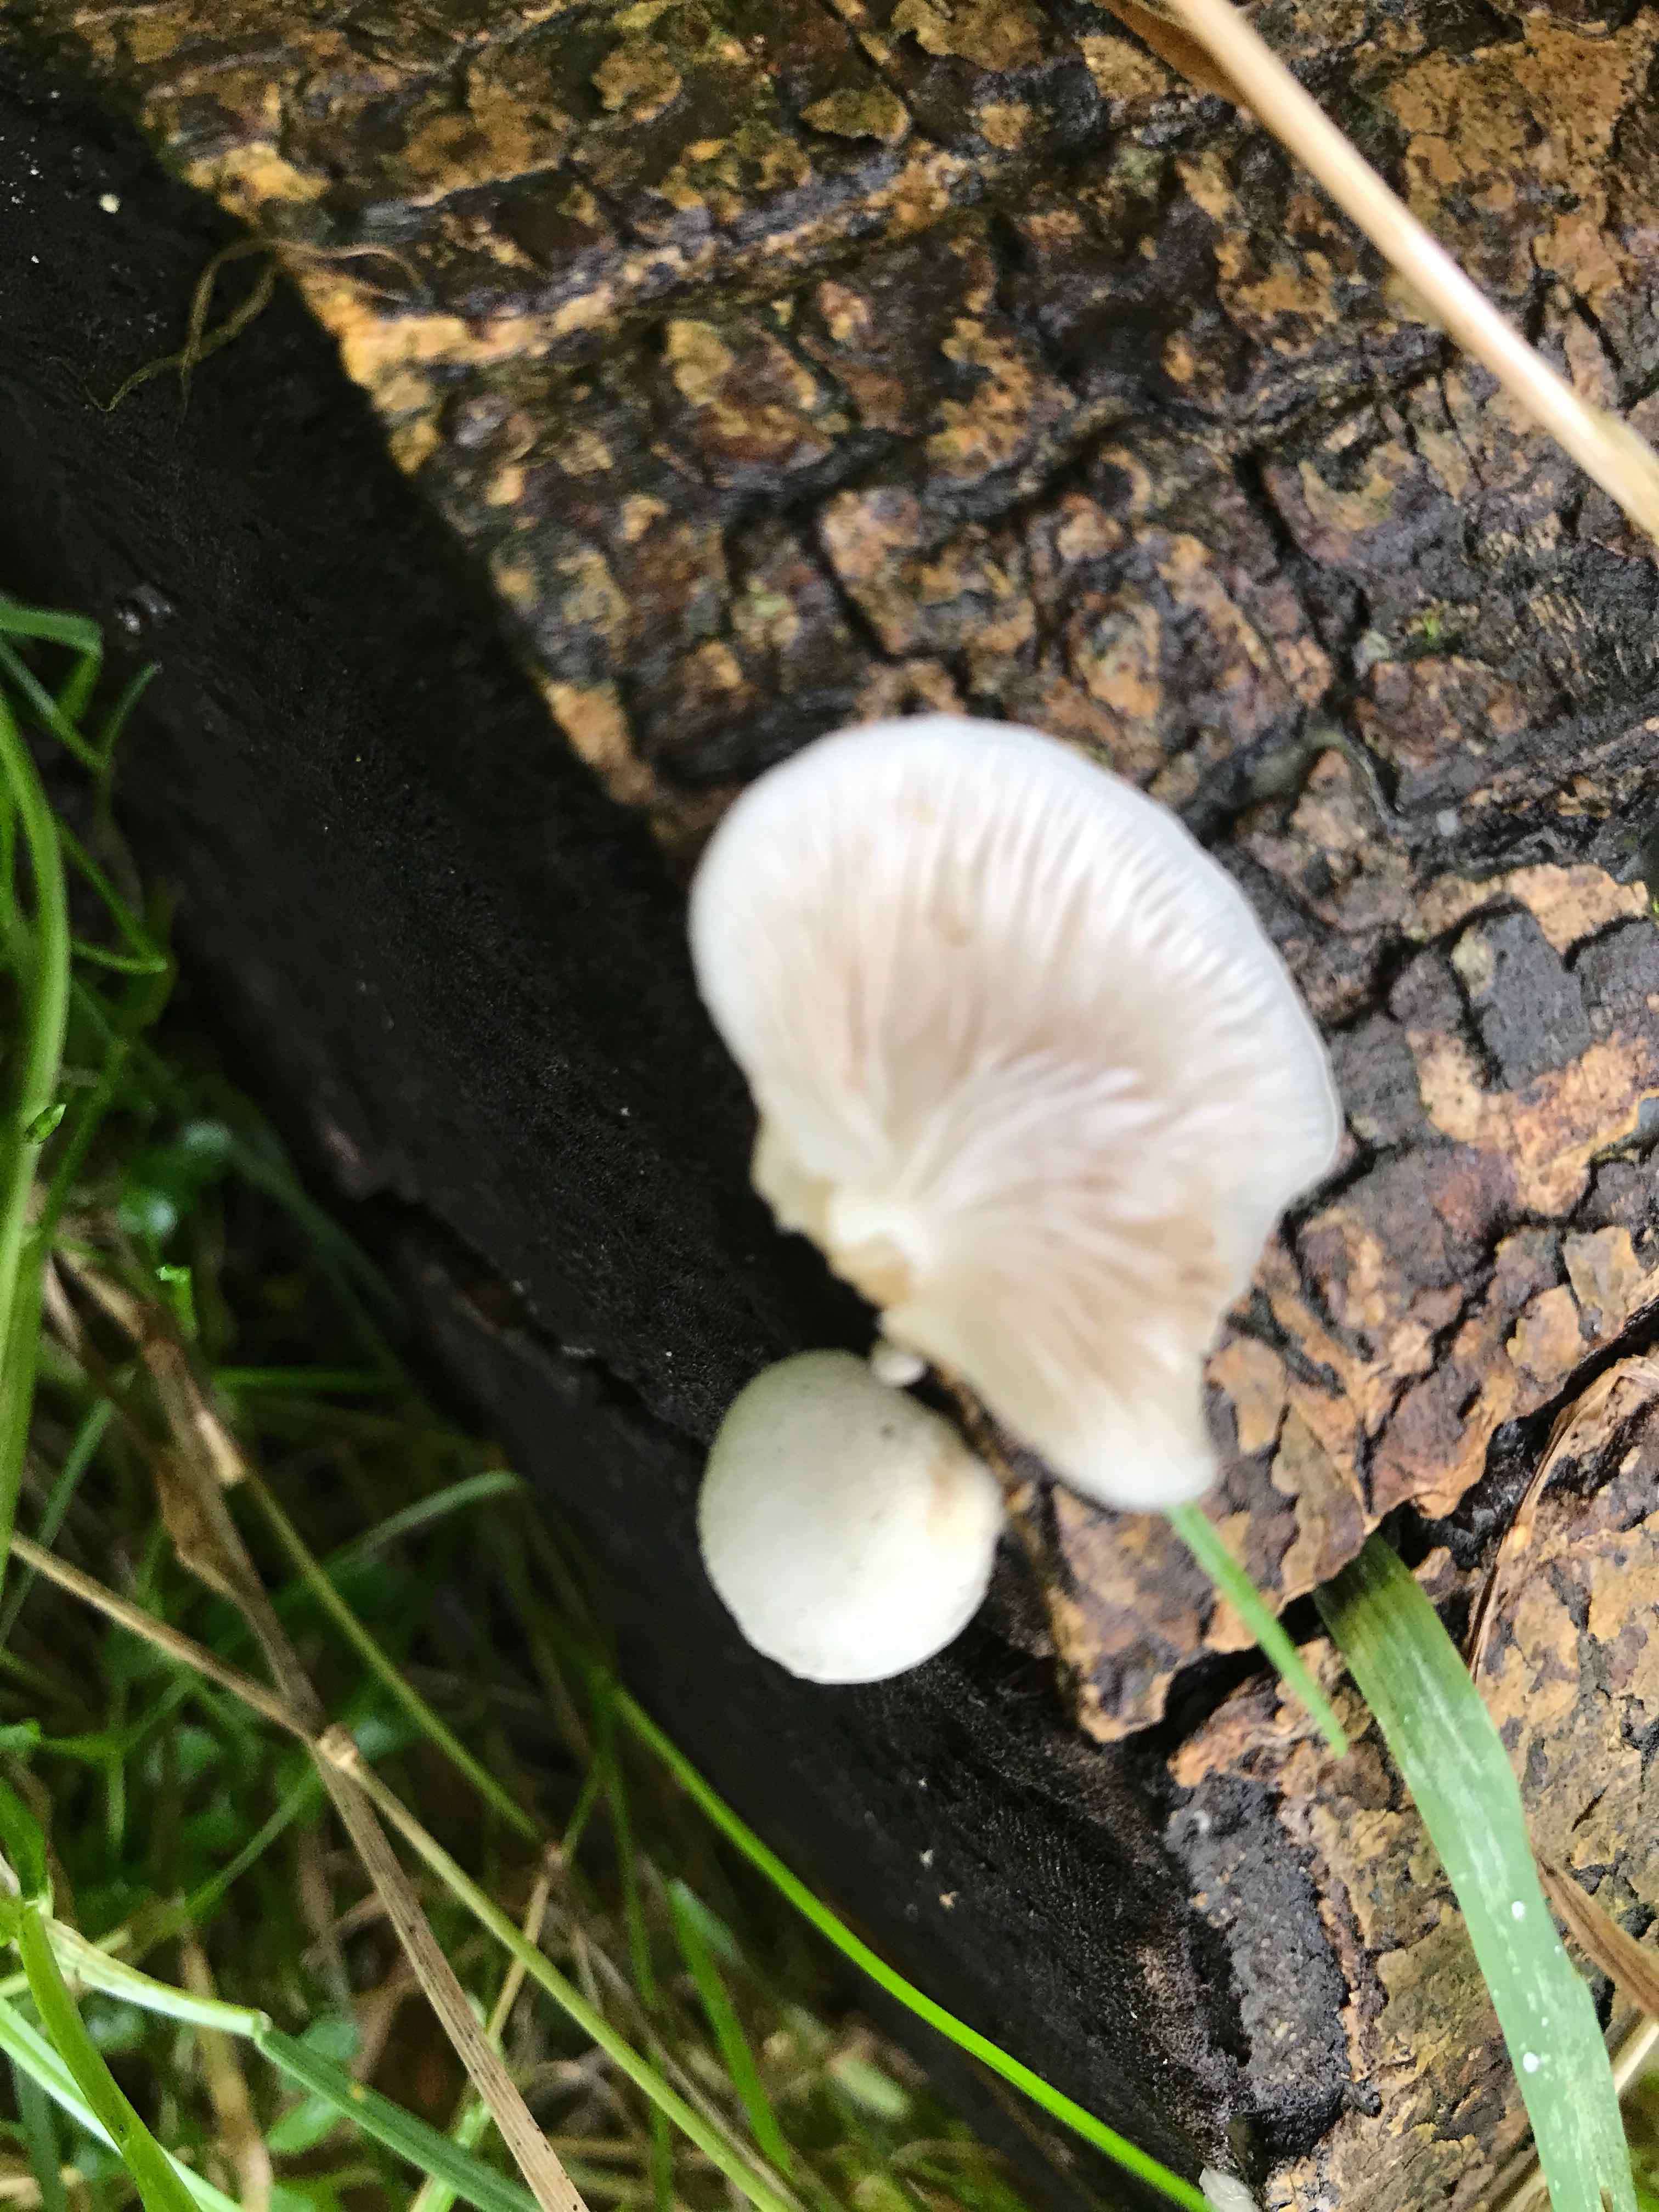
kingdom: Fungi
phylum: Basidiomycota
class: Agaricomycetes
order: Agaricales
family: Crepidotaceae
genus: Crepidotus
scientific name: Crepidotus mollis
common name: blød muslingesvamp
